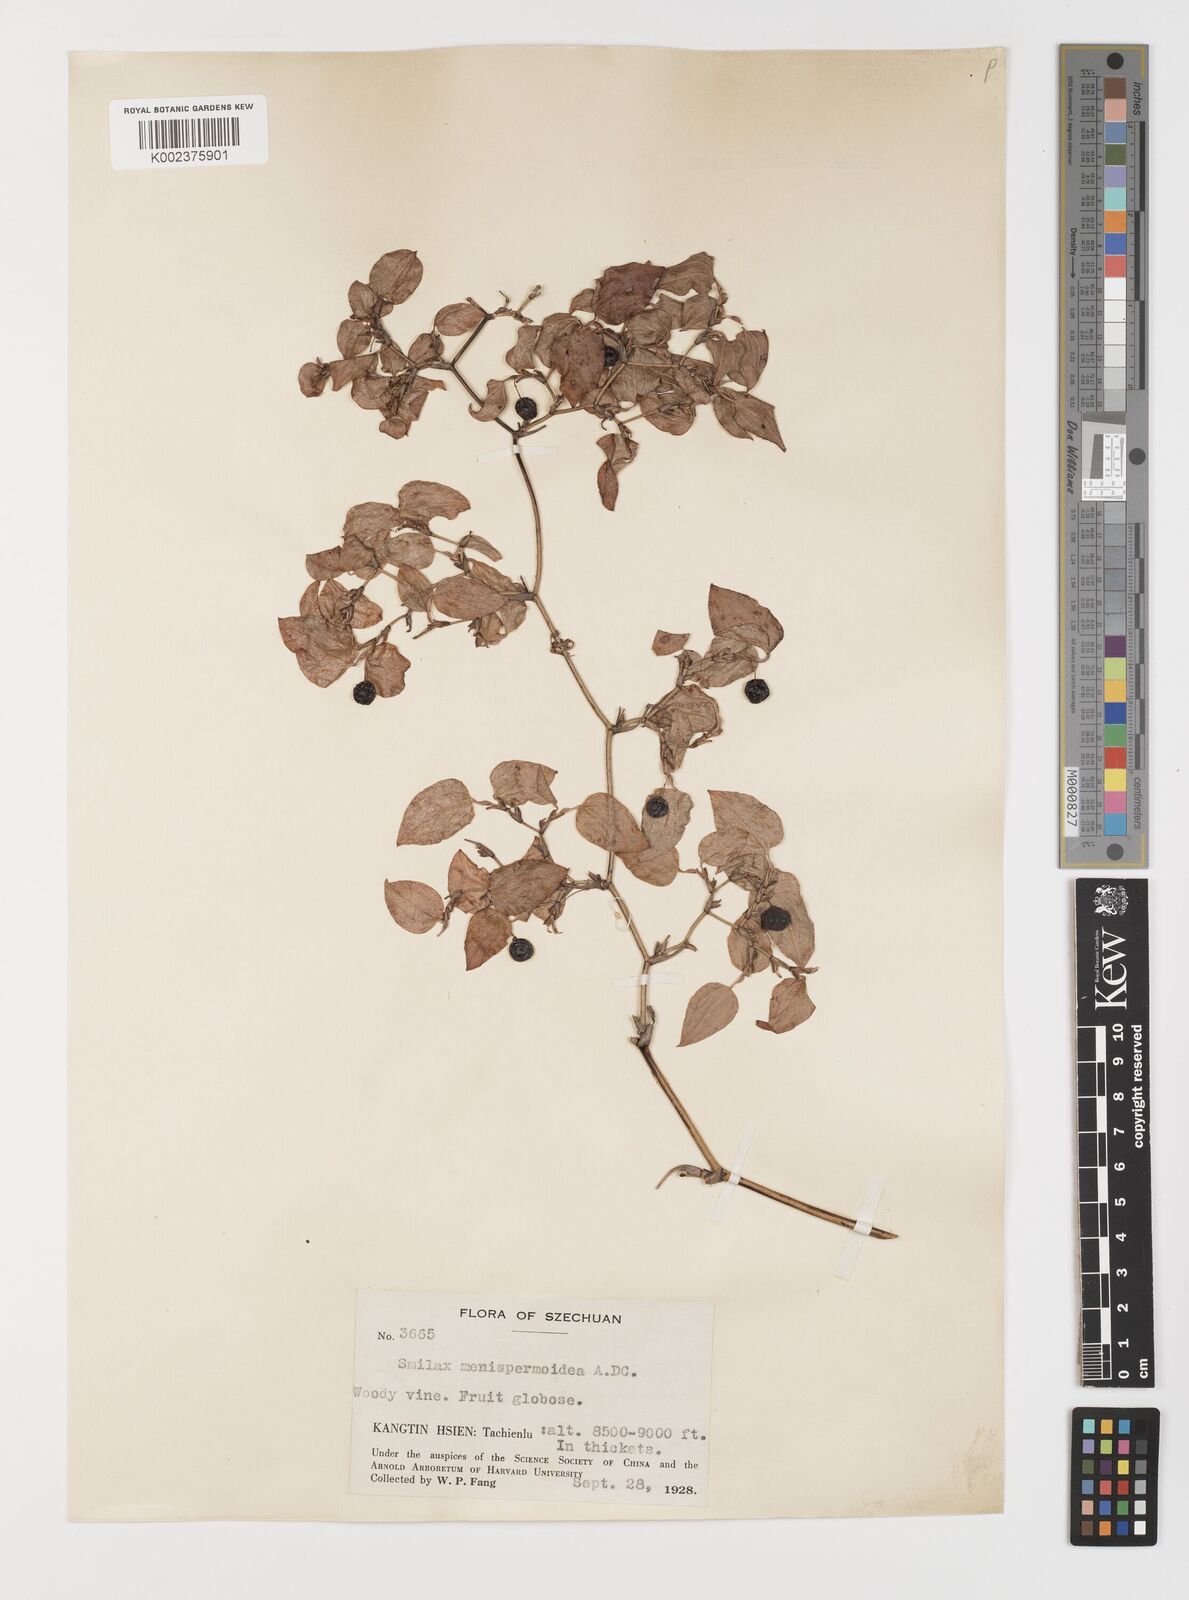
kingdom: Plantae
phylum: Tracheophyta
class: Liliopsida
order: Liliales
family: Smilacaceae
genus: Smilax
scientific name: Smilax menispermoidea
